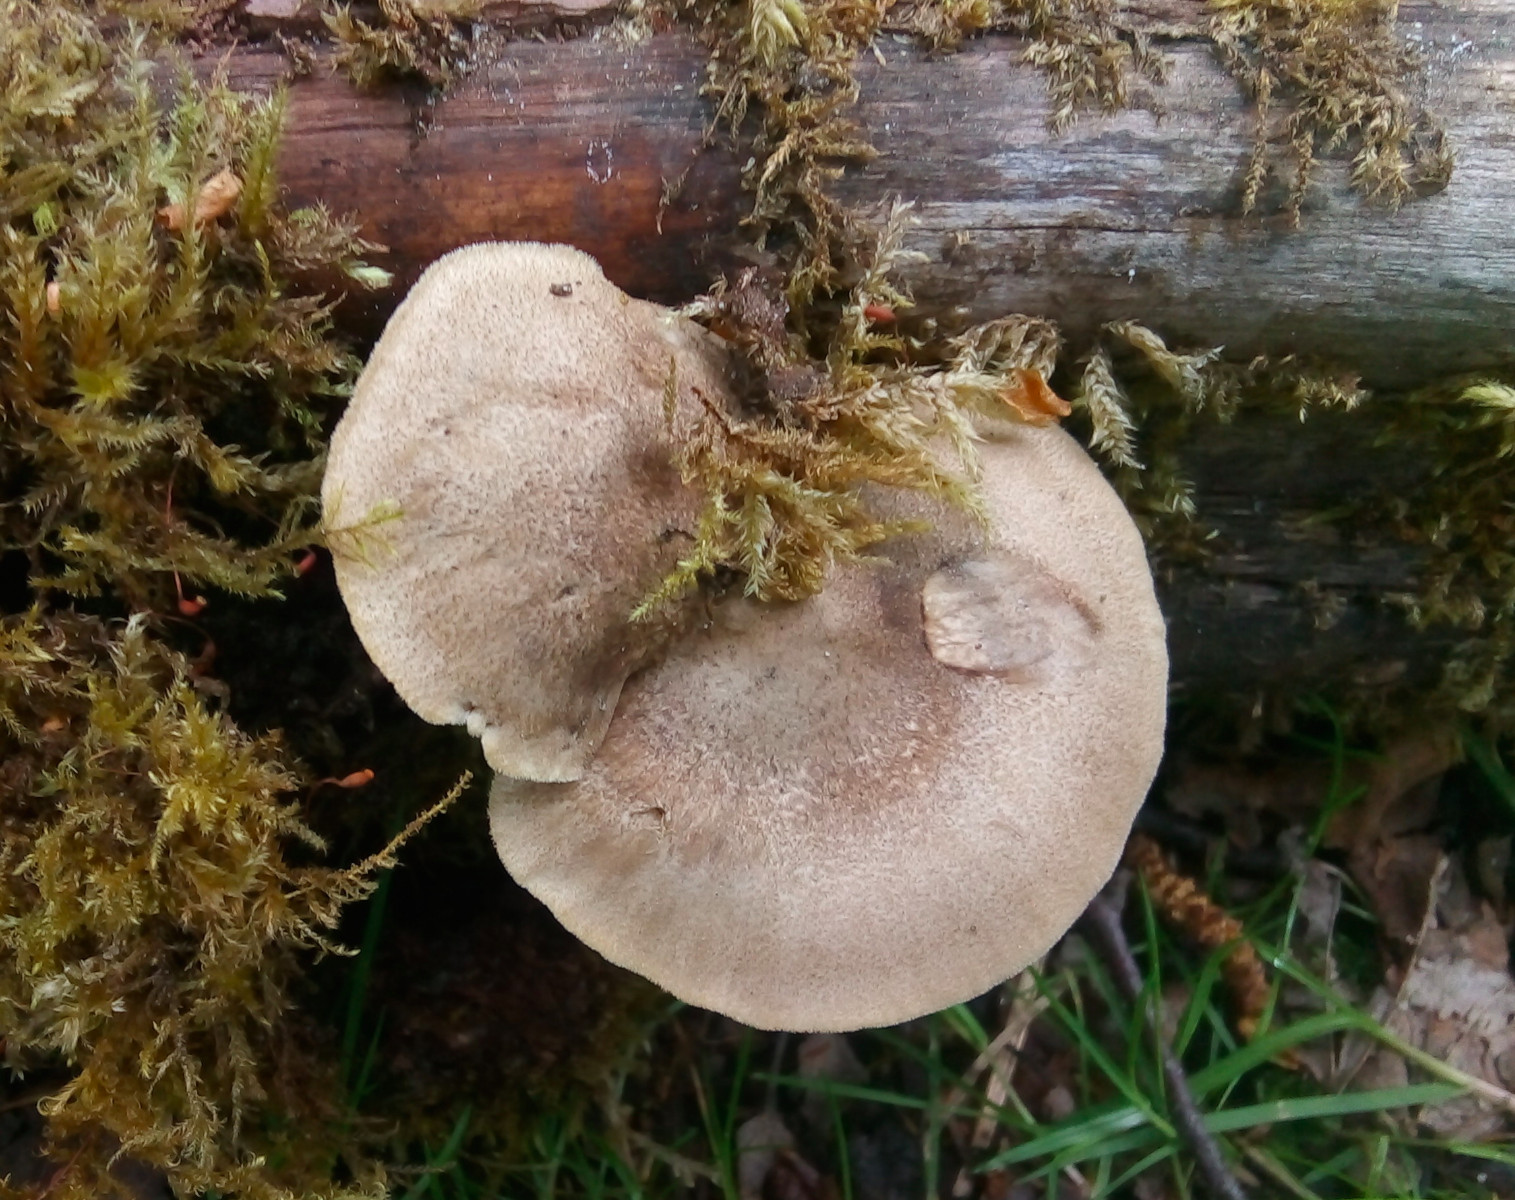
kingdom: Fungi
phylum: Basidiomycota
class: Agaricomycetes
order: Polyporales
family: Polyporaceae
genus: Lentinus
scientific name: Lentinus substrictus
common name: forårs-stilkporesvamp
